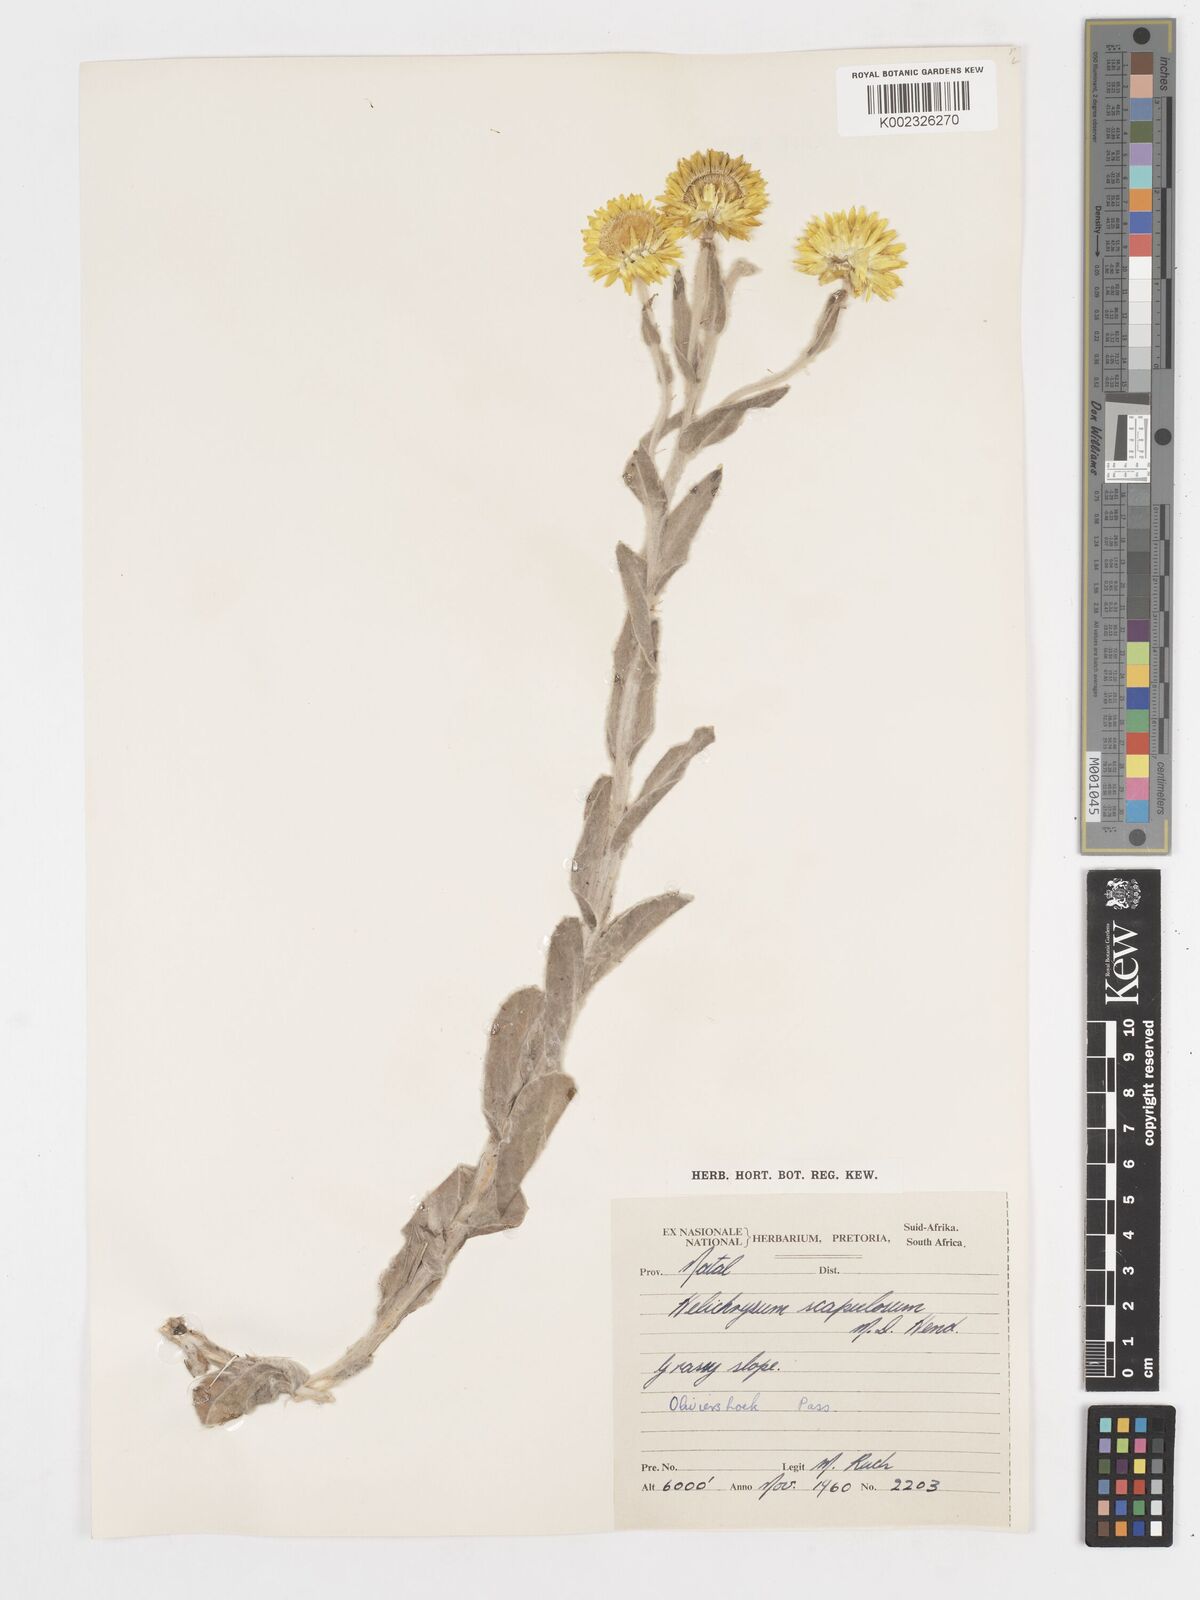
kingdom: Plantae
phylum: Tracheophyta
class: Magnoliopsida
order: Asterales
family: Asteraceae
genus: Helichrysum
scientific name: Helichrysum aureum
